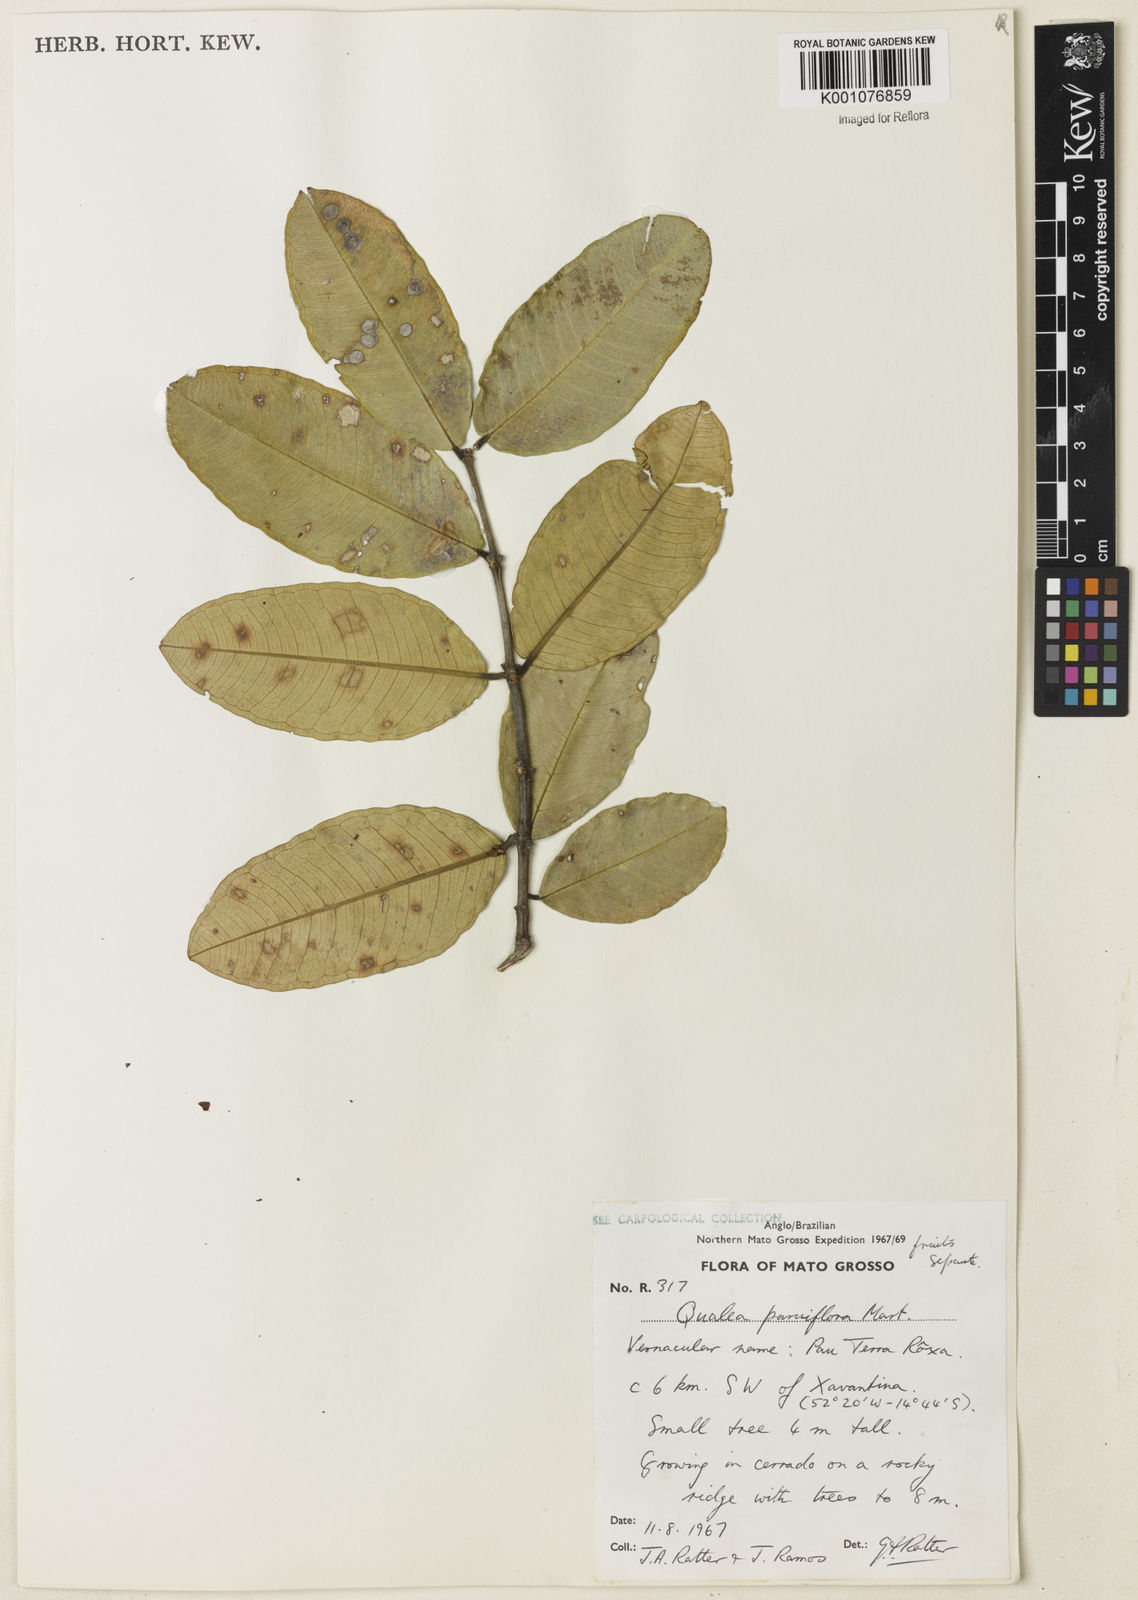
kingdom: Plantae
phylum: Tracheophyta
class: Magnoliopsida
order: Myrtales
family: Vochysiaceae
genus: Qualea
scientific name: Qualea parviflora
